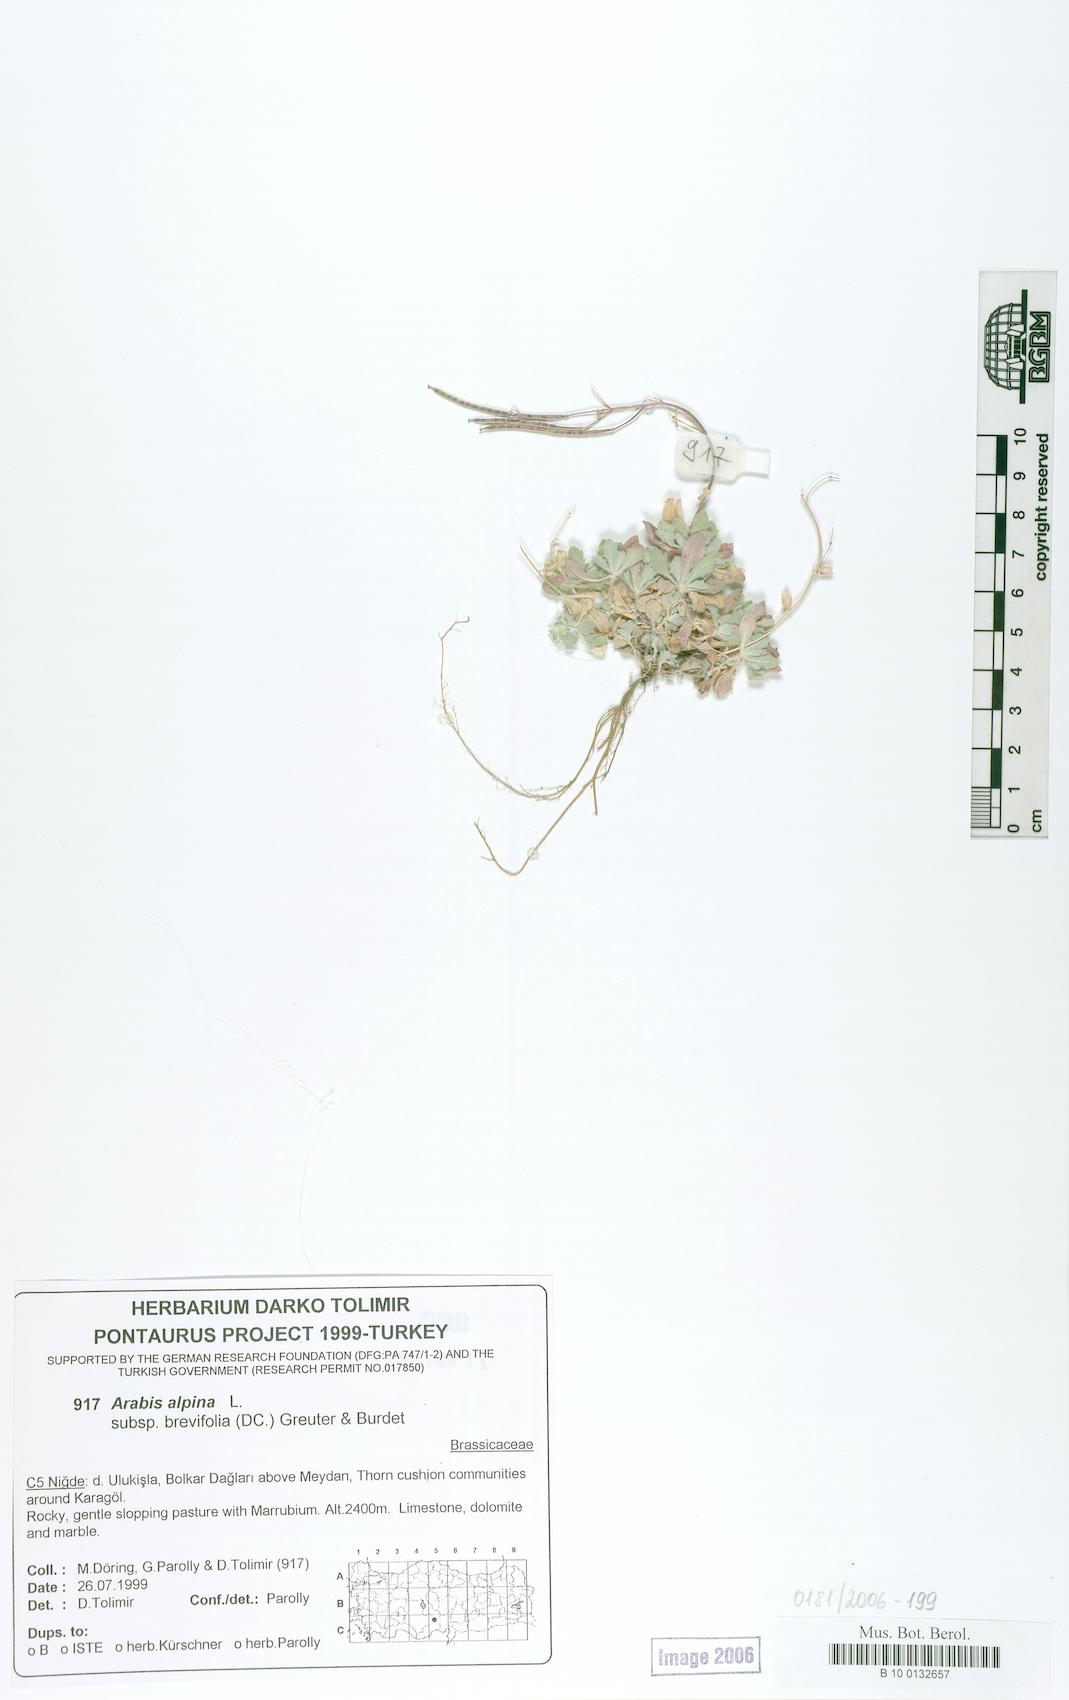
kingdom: Plantae
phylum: Tracheophyta
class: Magnoliopsida
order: Brassicales
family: Brassicaceae
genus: Arabis
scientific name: Arabis caucasica
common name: Gray rockcress
